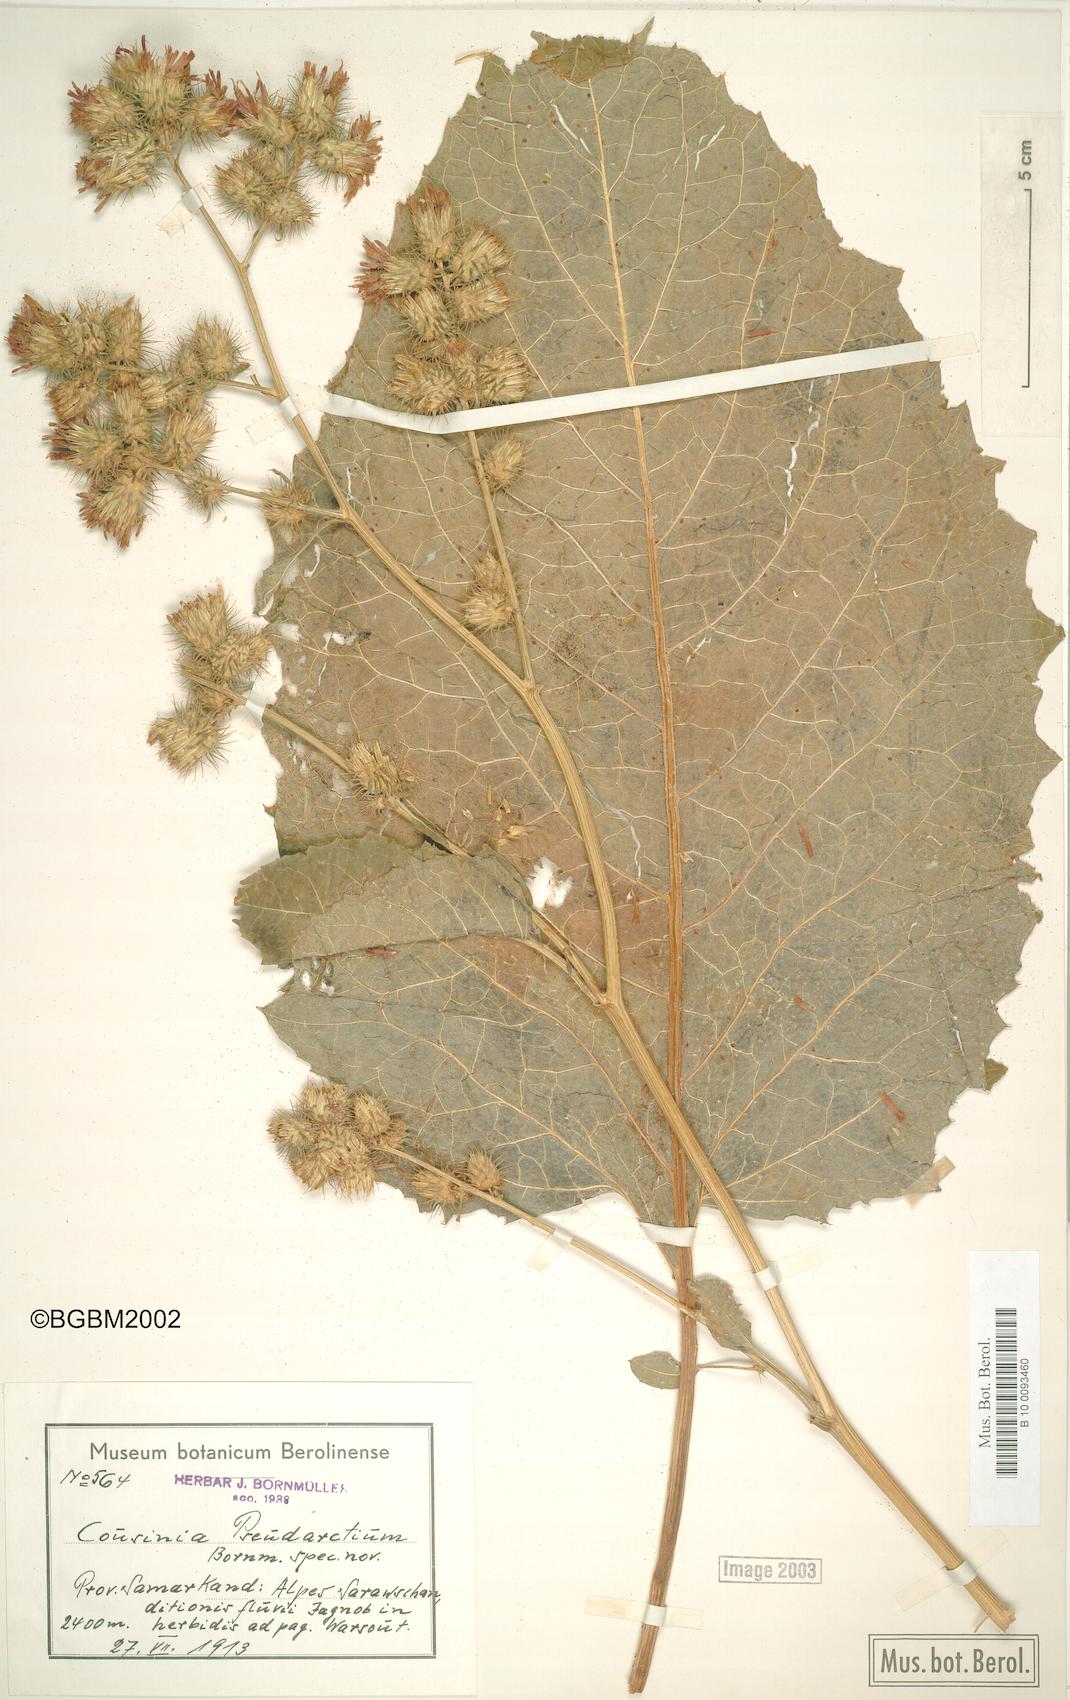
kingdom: Plantae
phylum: Tracheophyta
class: Magnoliopsida
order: Asterales
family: Asteraceae
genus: Arctium
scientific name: Arctium pseudarctium
